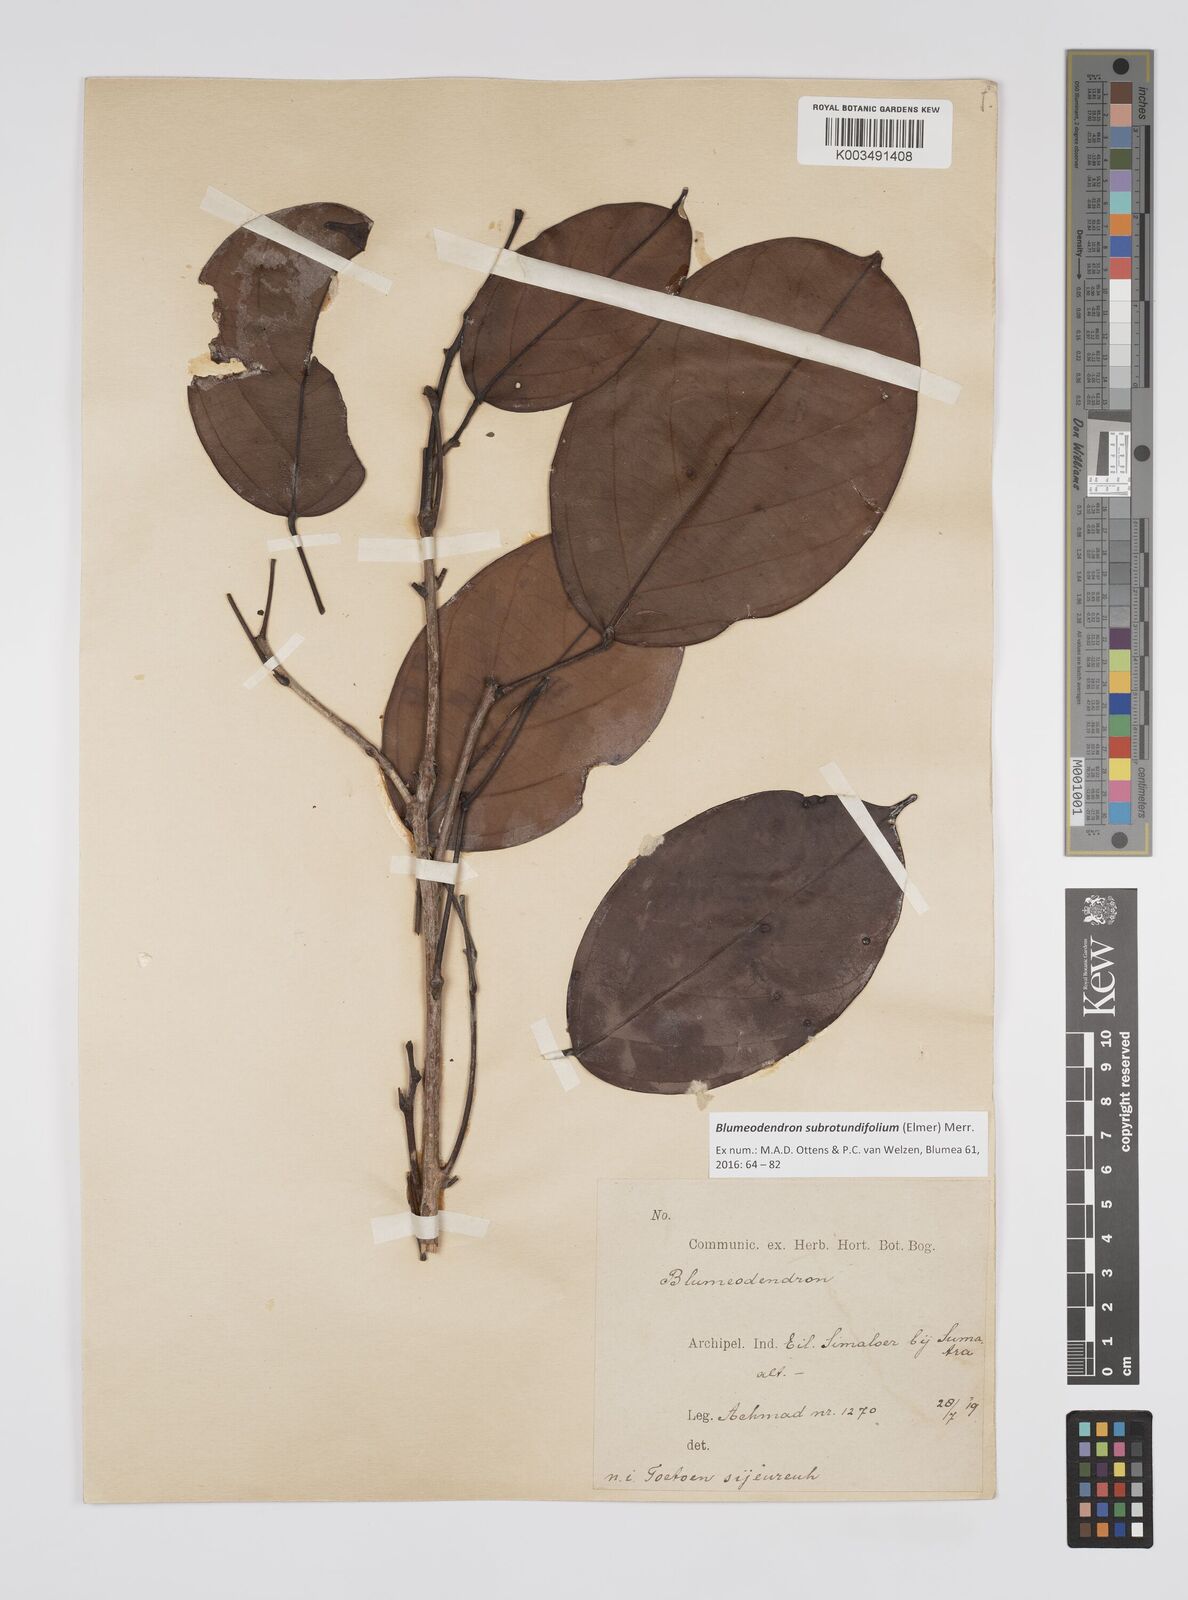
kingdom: Plantae
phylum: Tracheophyta
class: Magnoliopsida
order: Malpighiales
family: Euphorbiaceae
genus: Blumeodendron
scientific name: Blumeodendron subrotundifolium
